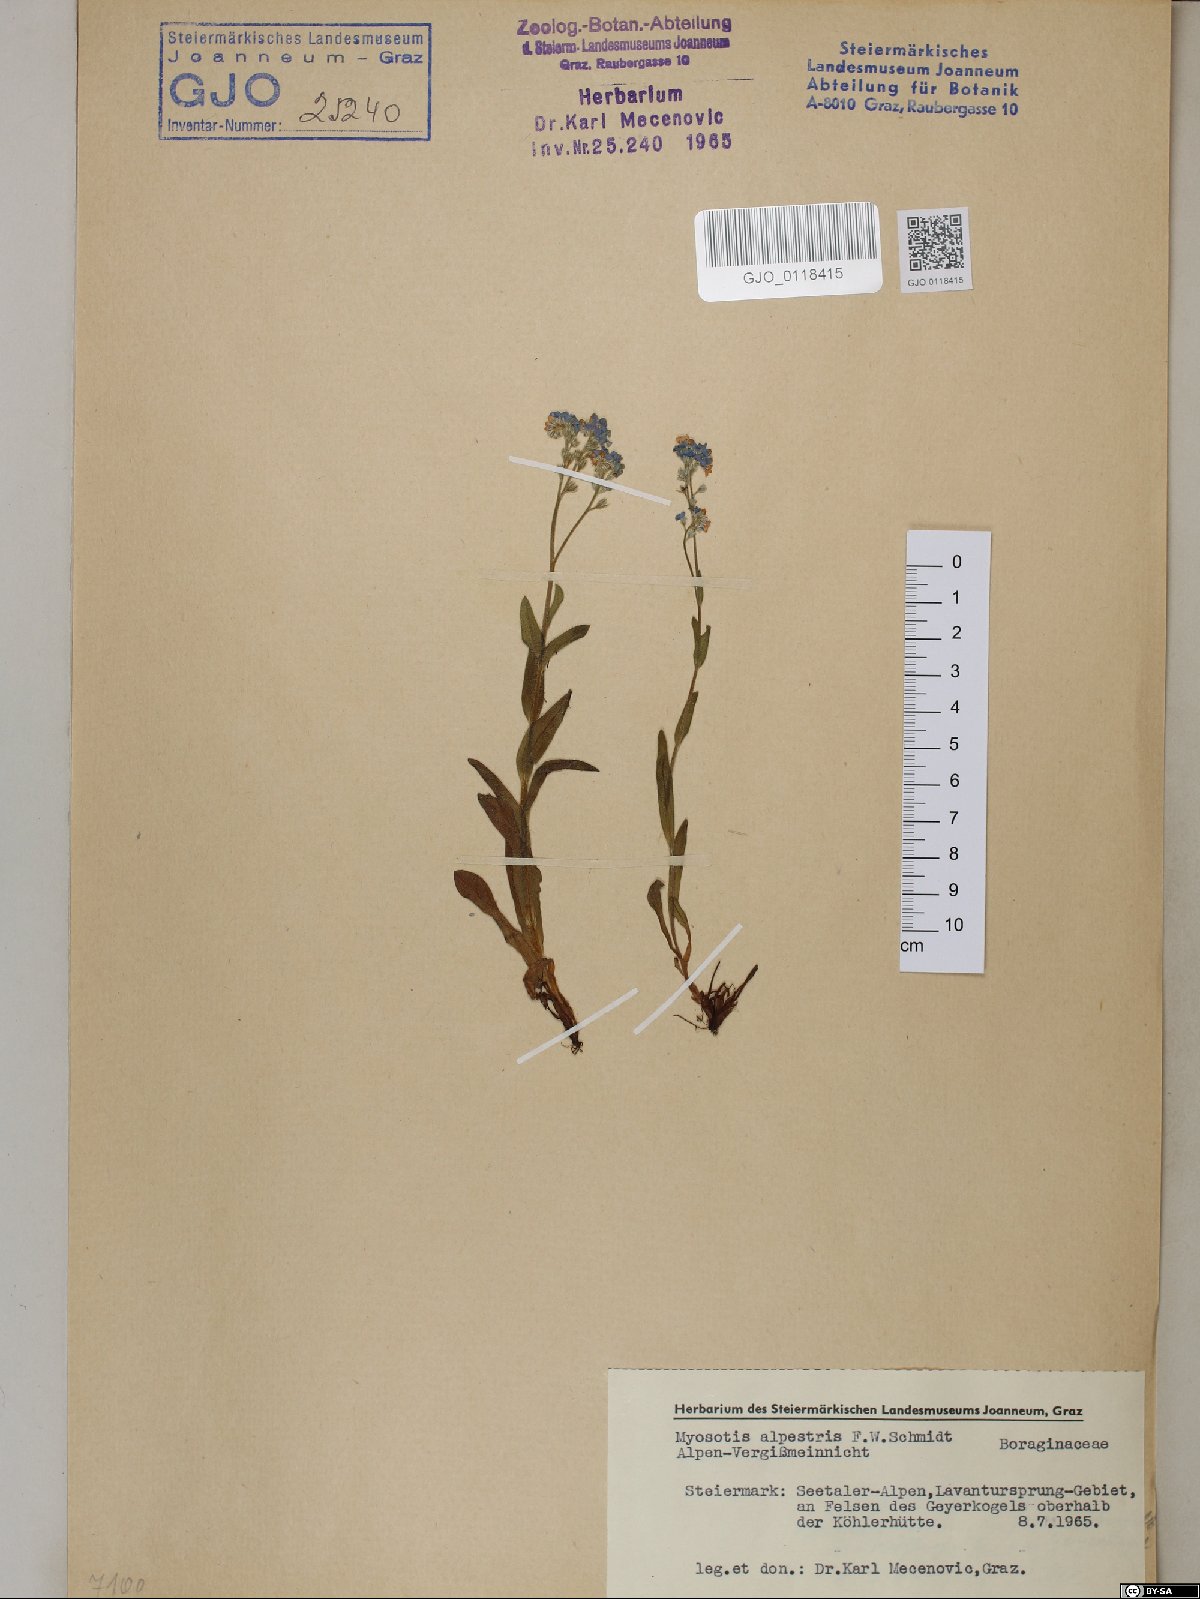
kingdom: Plantae
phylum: Tracheophyta
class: Magnoliopsida
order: Boraginales
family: Boraginaceae
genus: Myosotis
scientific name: Myosotis alpestris
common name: Alpine forget-me-not
